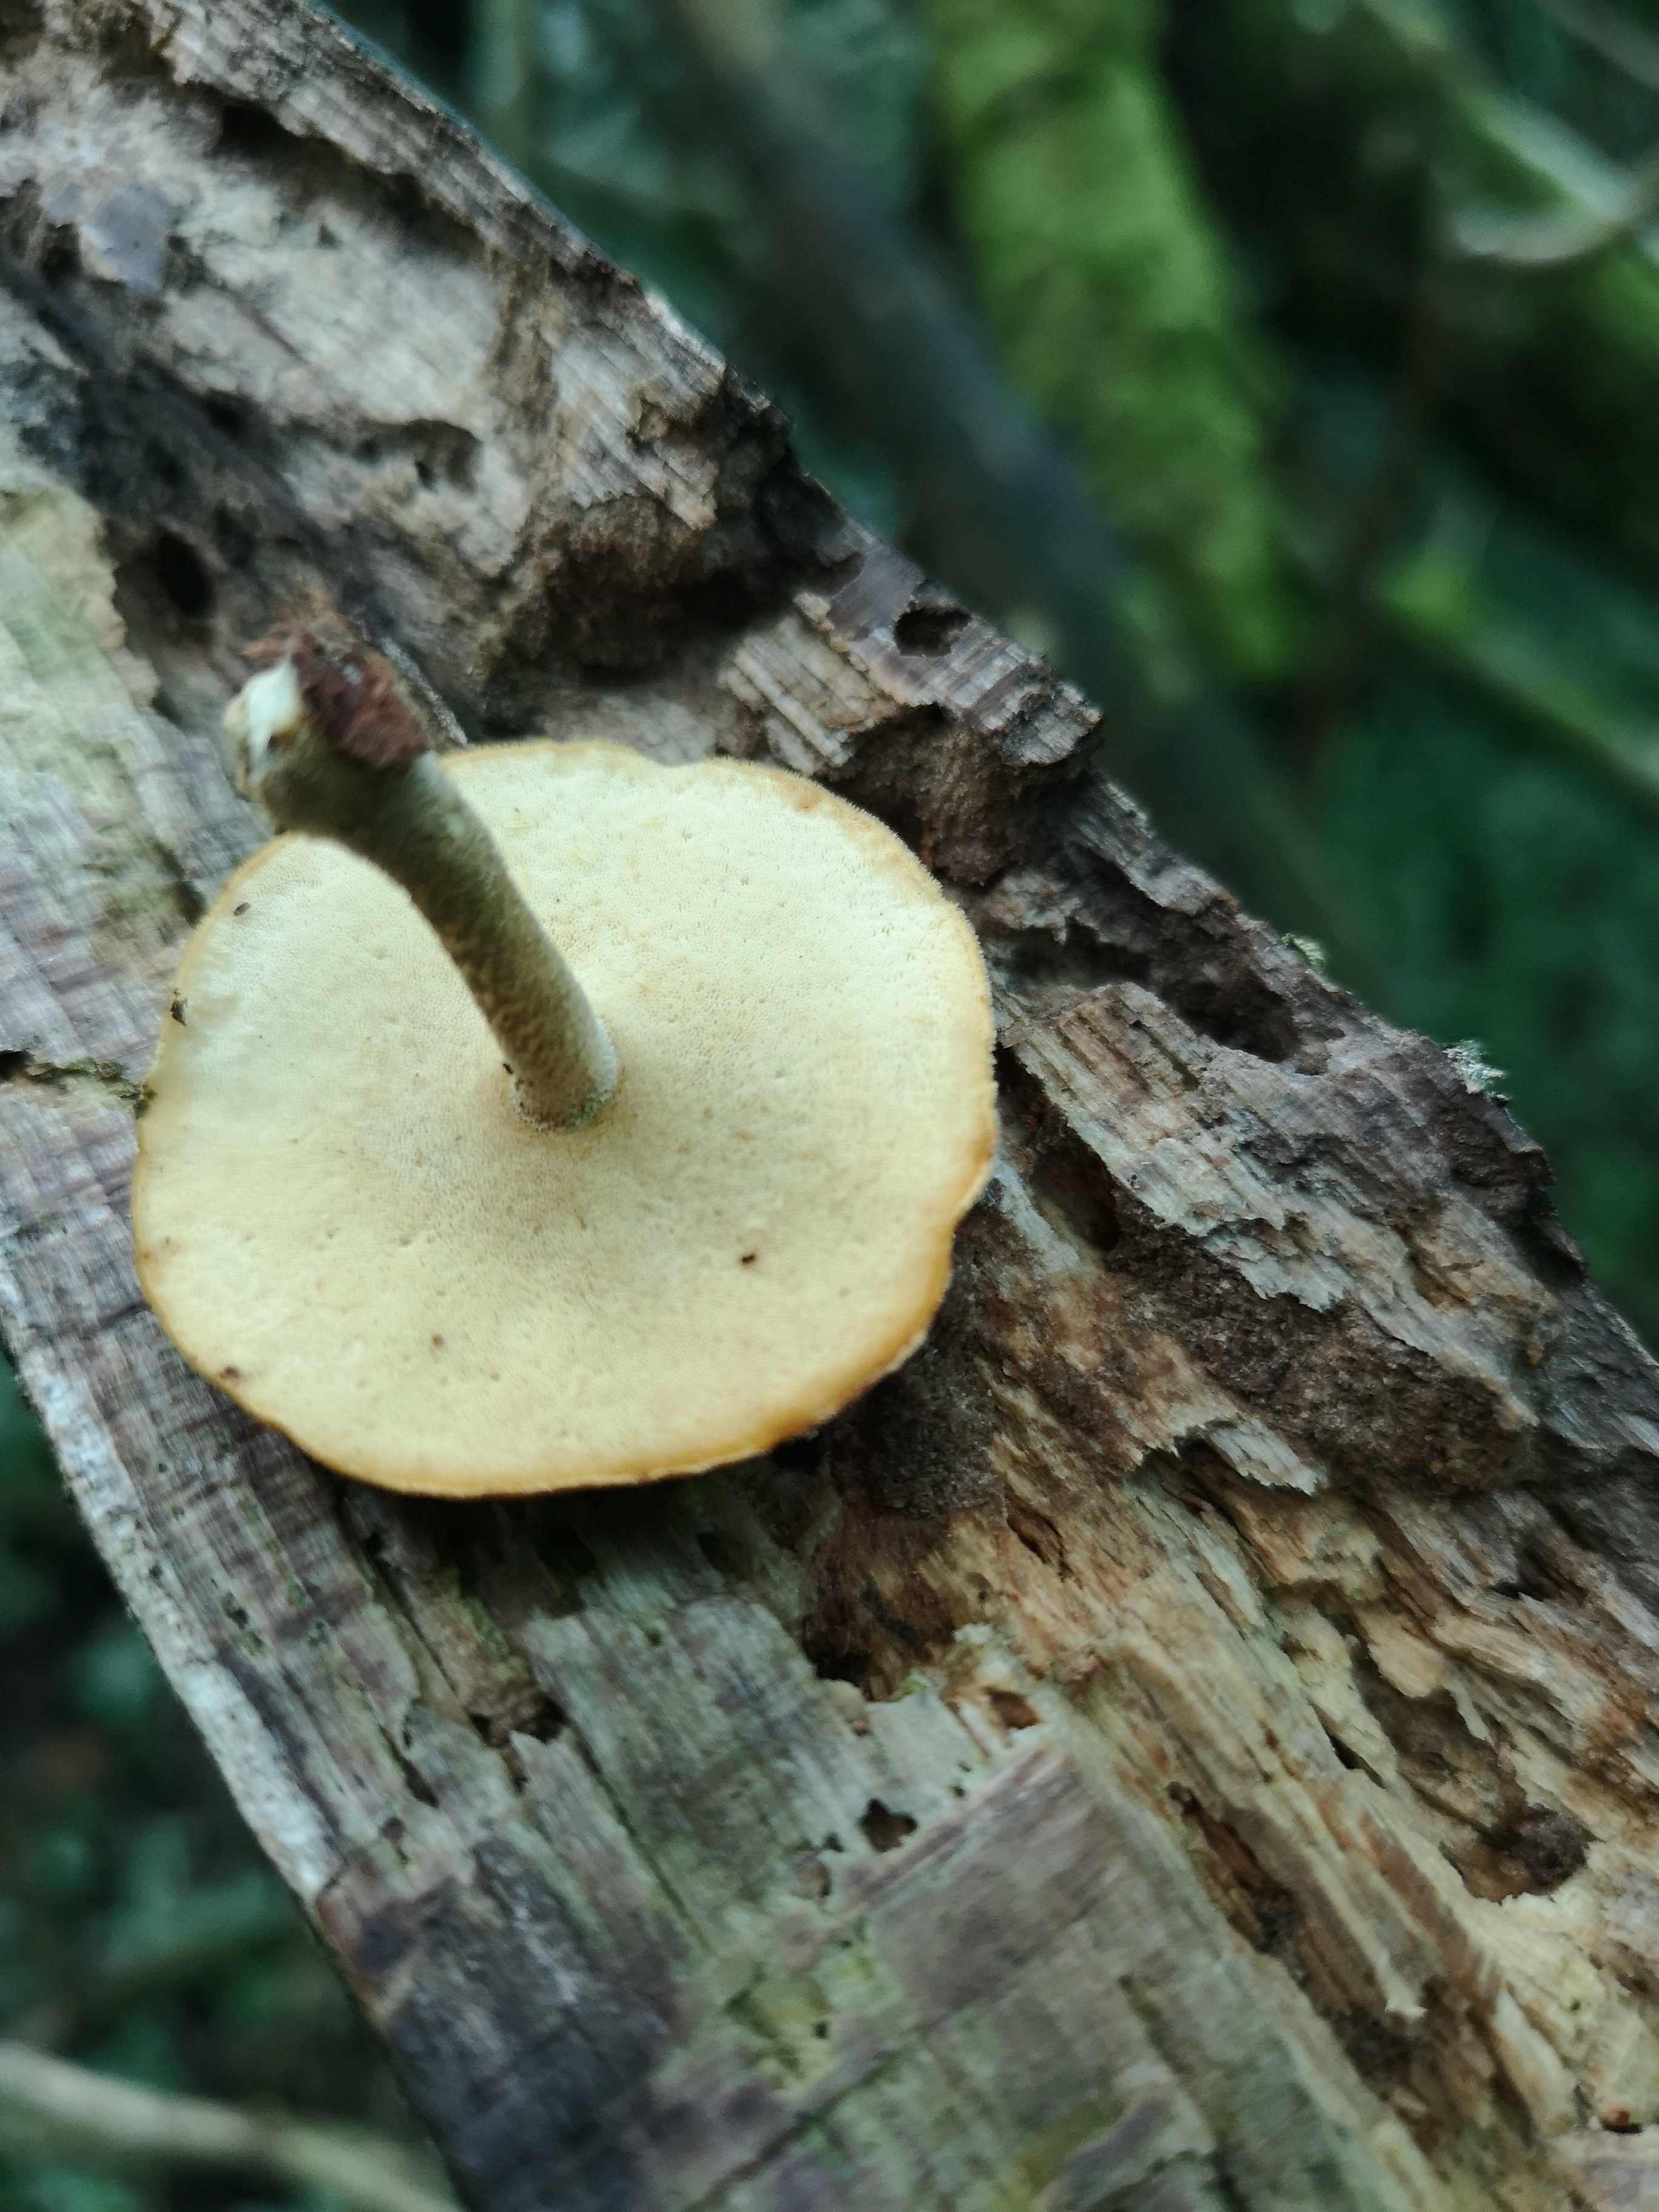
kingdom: Fungi
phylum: Basidiomycota
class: Agaricomycetes
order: Polyporales
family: Polyporaceae
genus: Cerioporus
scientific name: Cerioporus varius
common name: foranderlig stilkporesvamp
